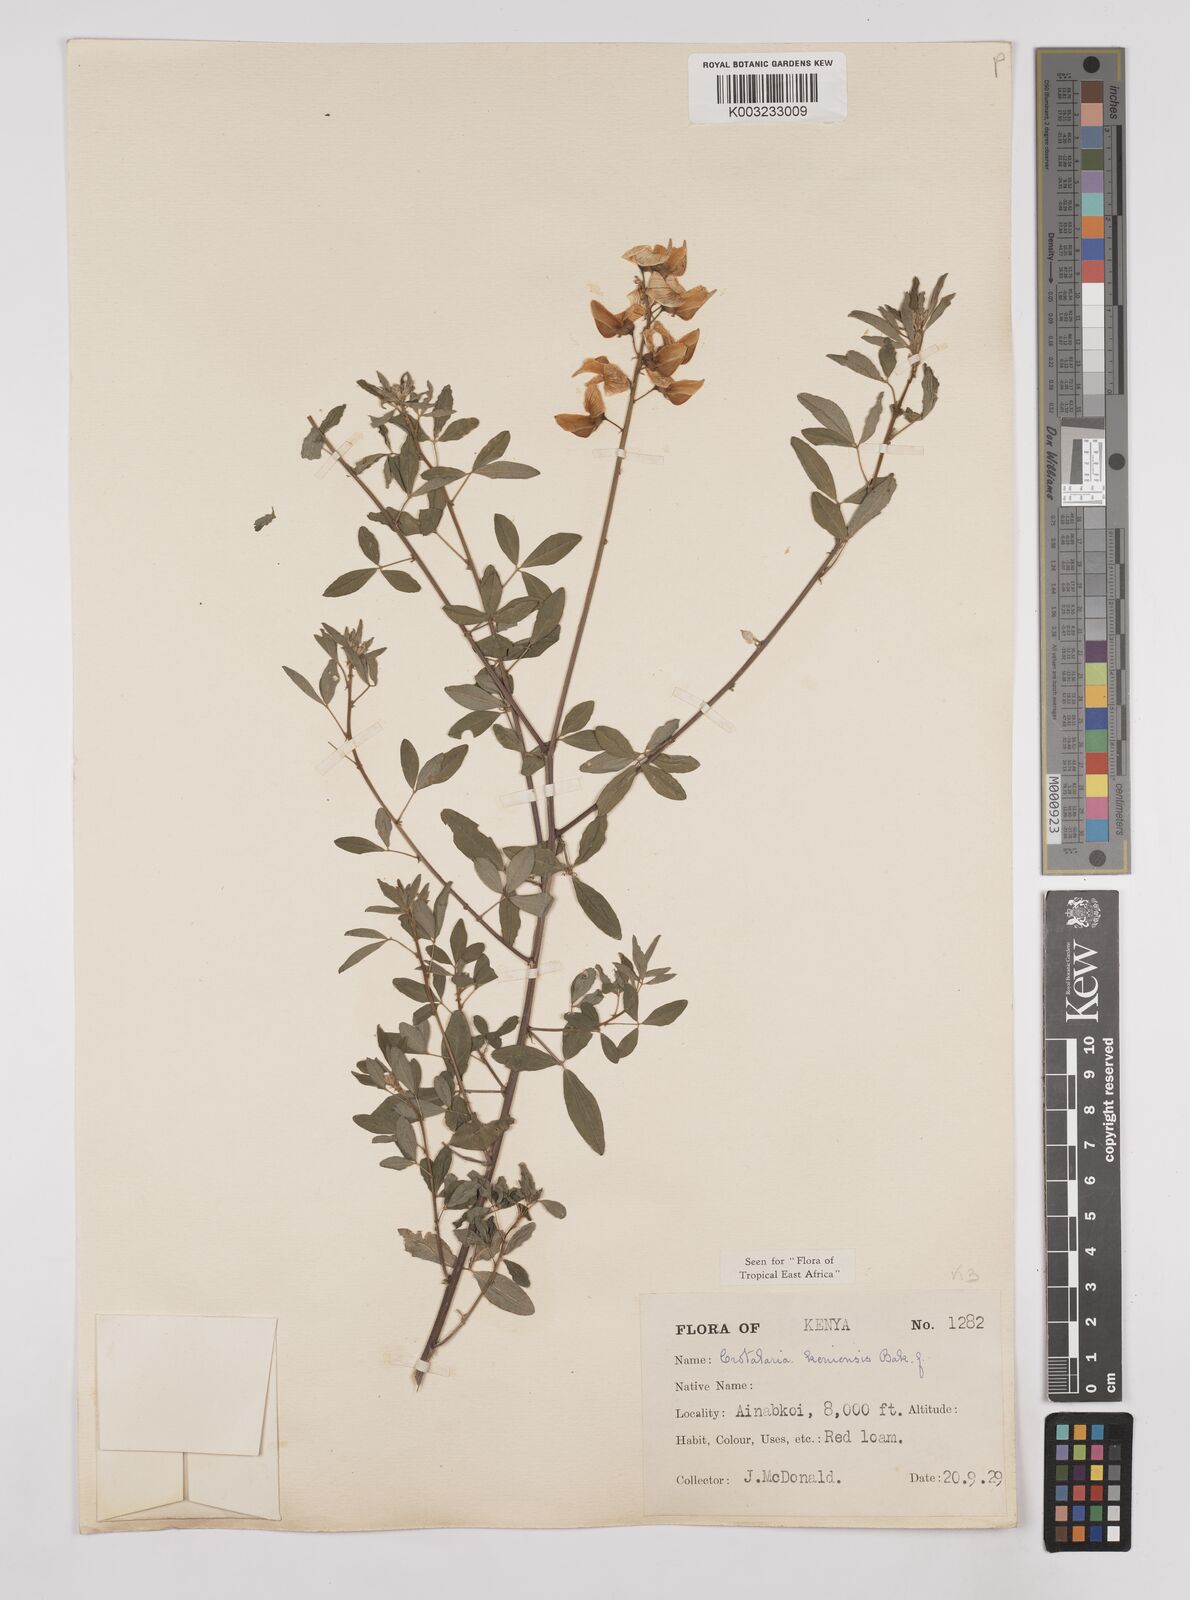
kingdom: Plantae
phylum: Tracheophyta
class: Magnoliopsida
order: Fabales
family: Fabaceae
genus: Crotalaria
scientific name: Crotalaria keniensis
